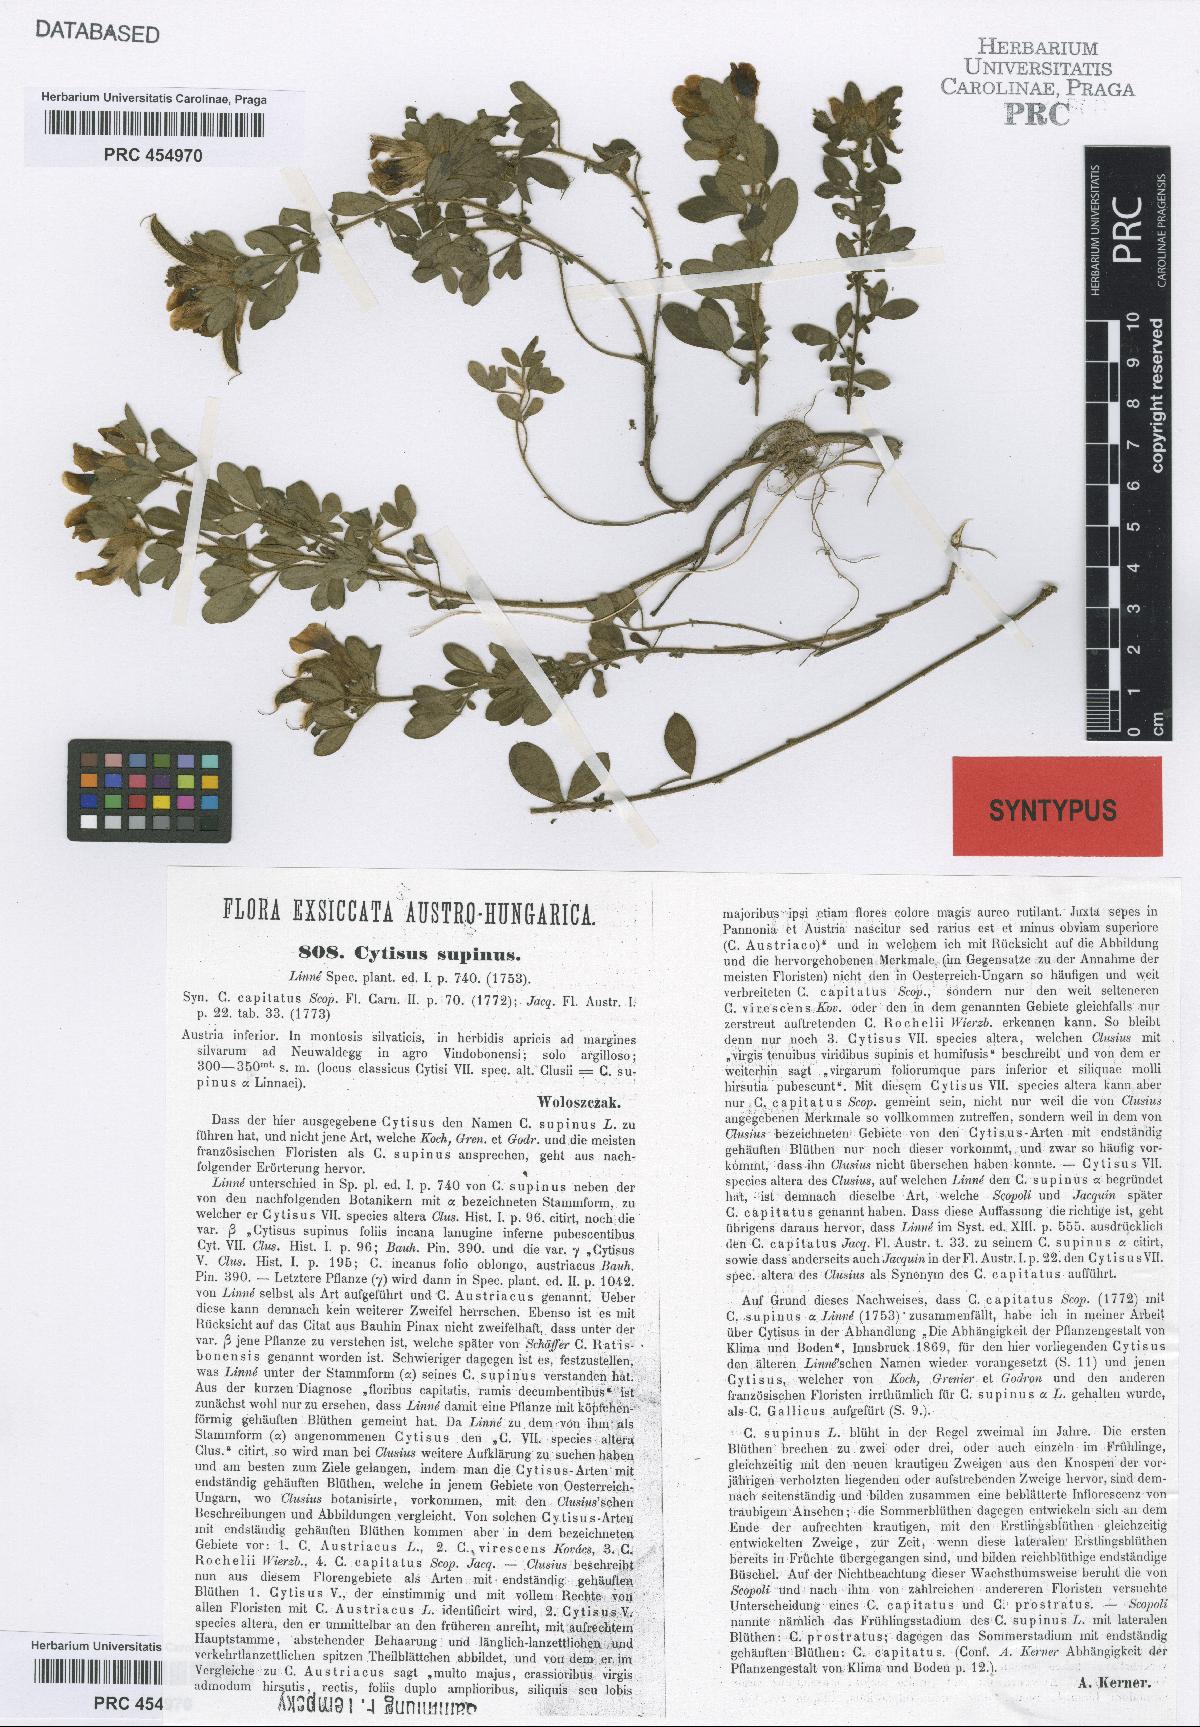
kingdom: Plantae
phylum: Tracheophyta
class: Magnoliopsida
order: Fabales
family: Fabaceae
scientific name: Fabaceae
